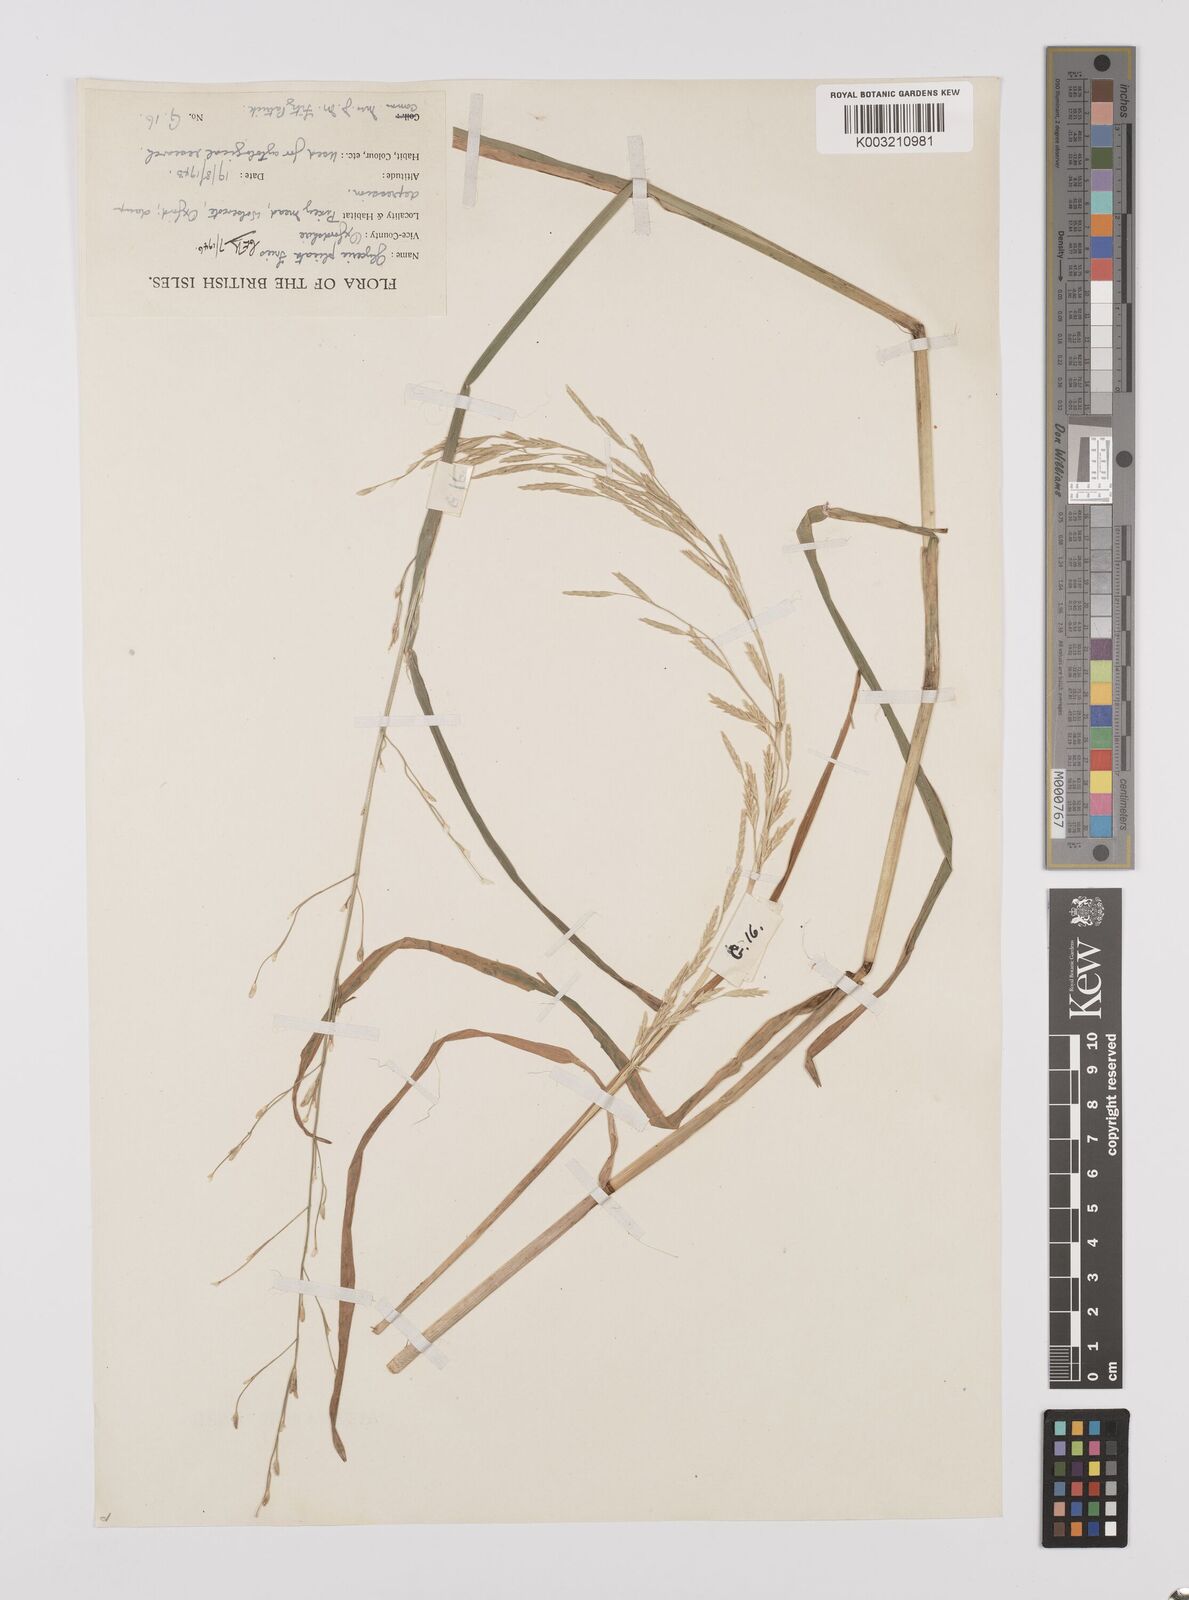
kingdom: Plantae
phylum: Tracheophyta
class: Liliopsida
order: Poales
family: Poaceae
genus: Glyceria
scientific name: Glyceria notata
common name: Plicate sweet-grass
